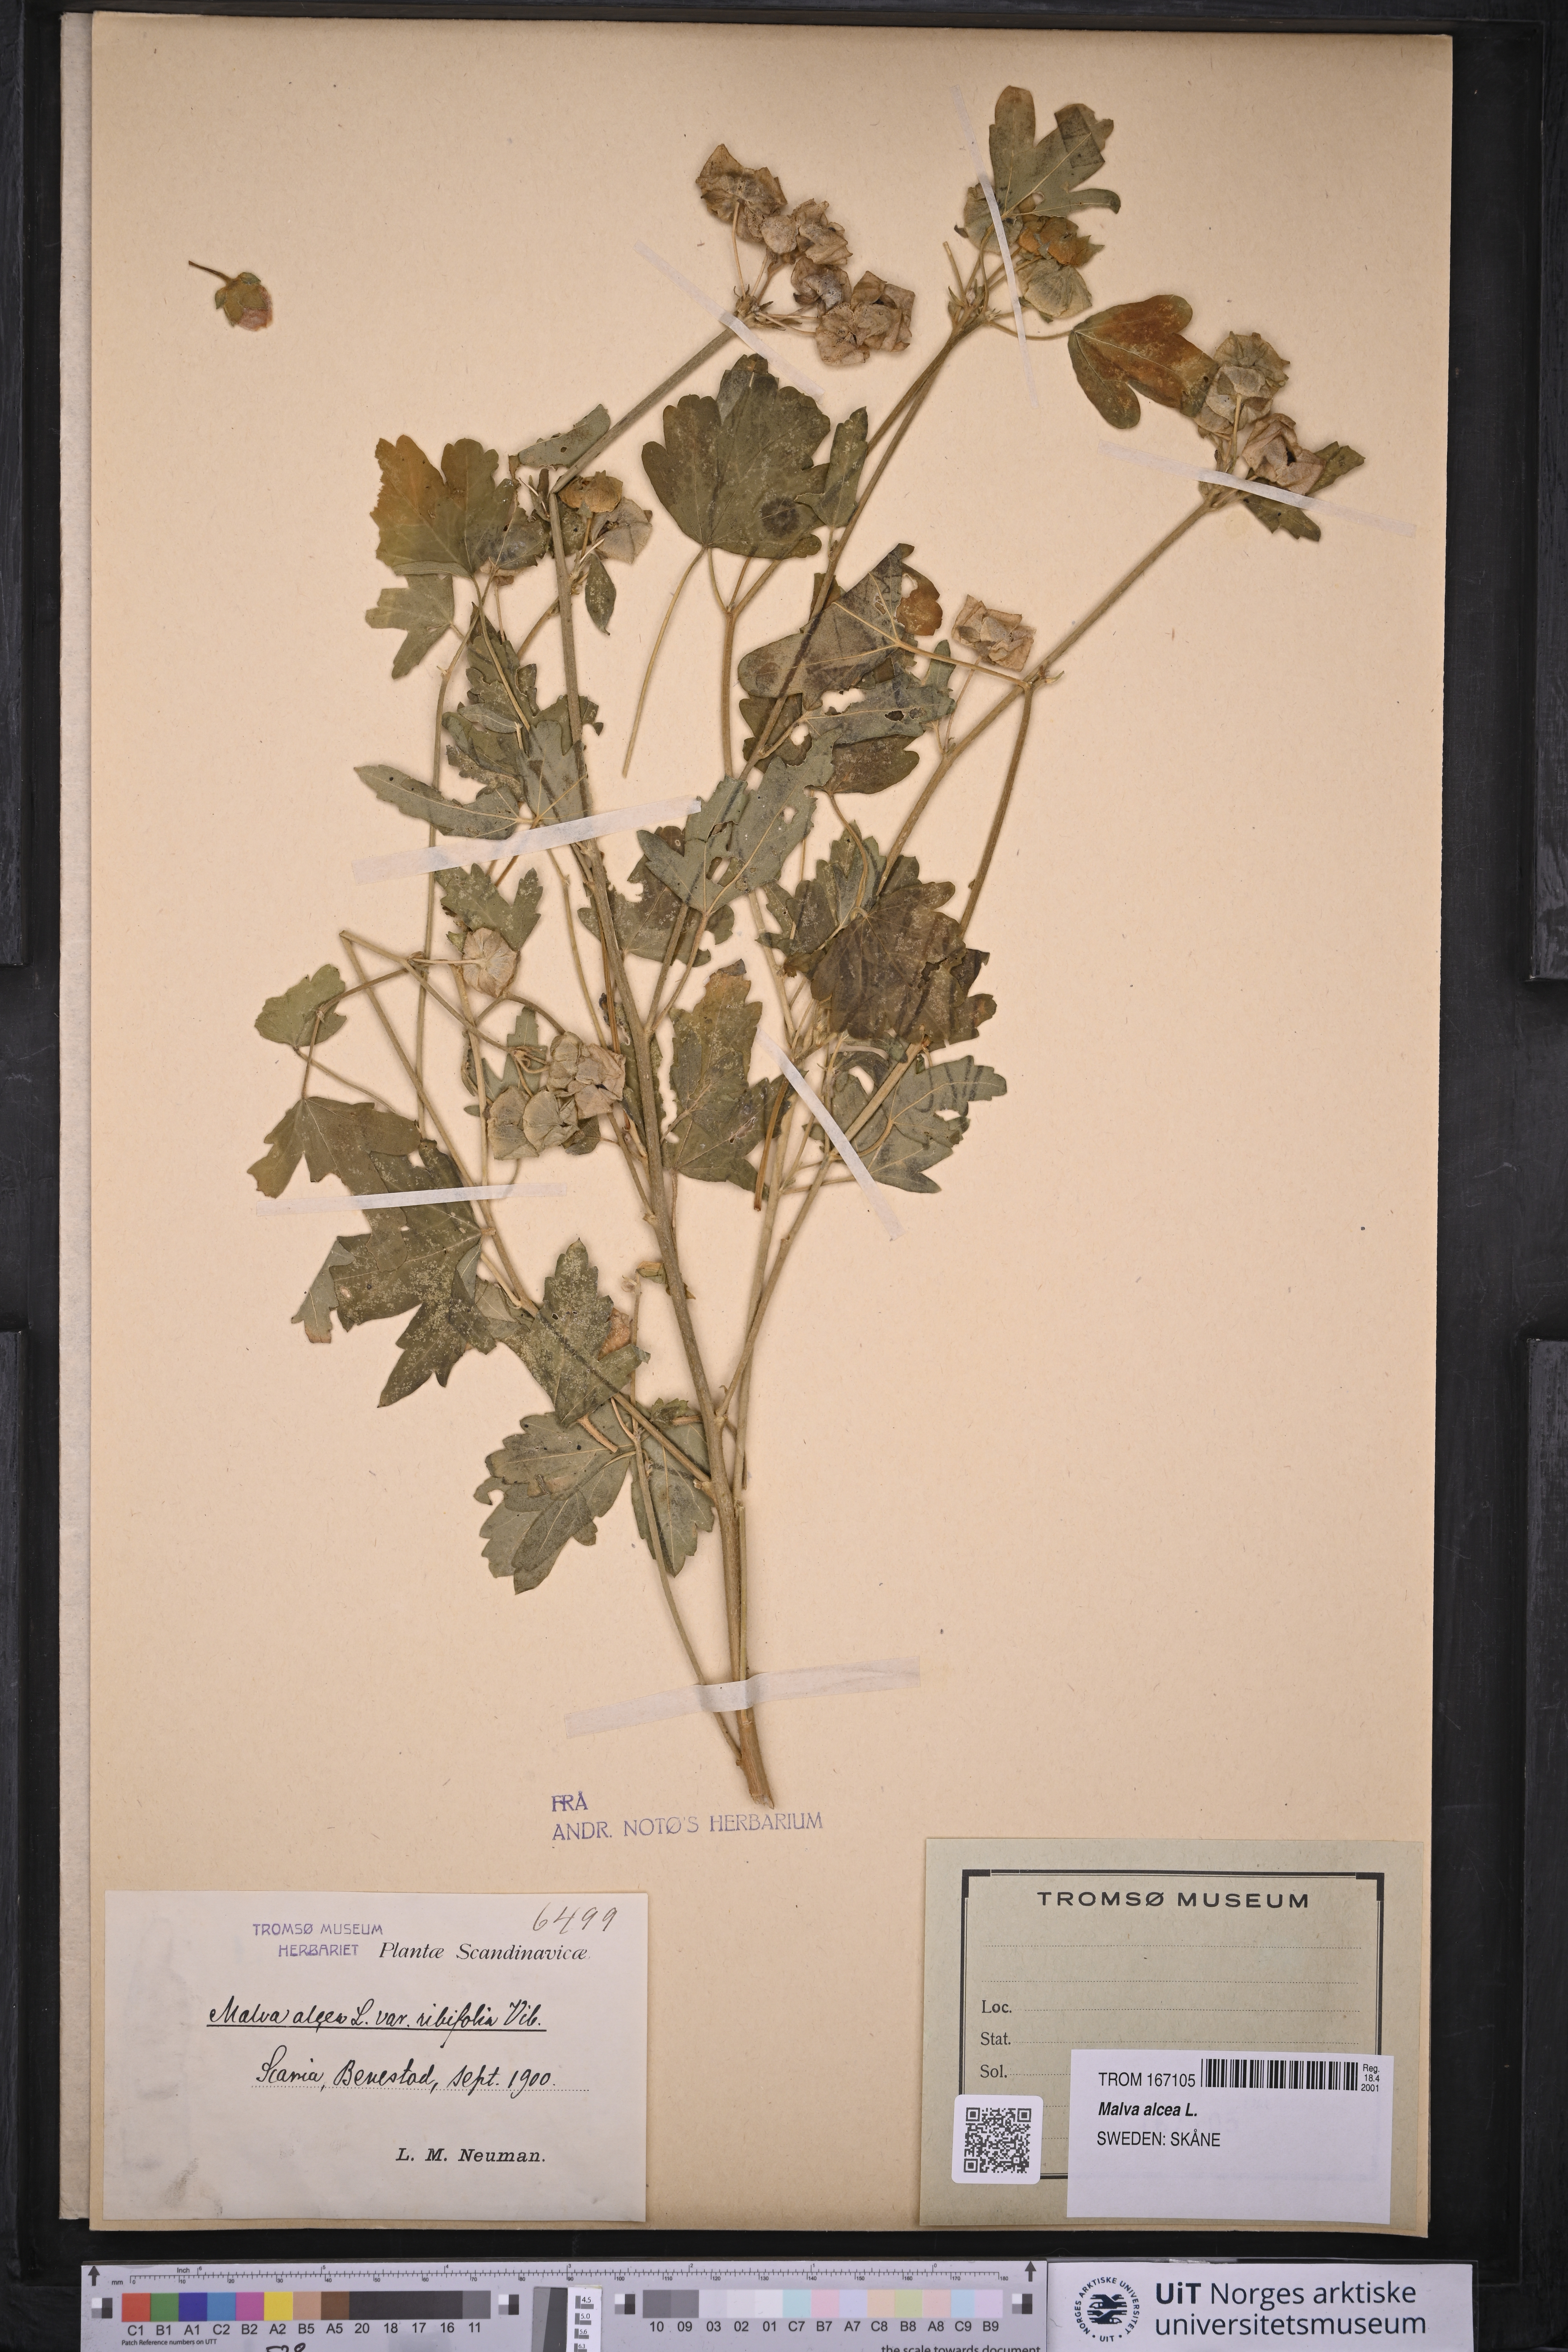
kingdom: Plantae
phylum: Tracheophyta
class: Magnoliopsida
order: Malvales
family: Malvaceae
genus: Malva
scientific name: Malva alcea
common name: Greater musk-mallow
